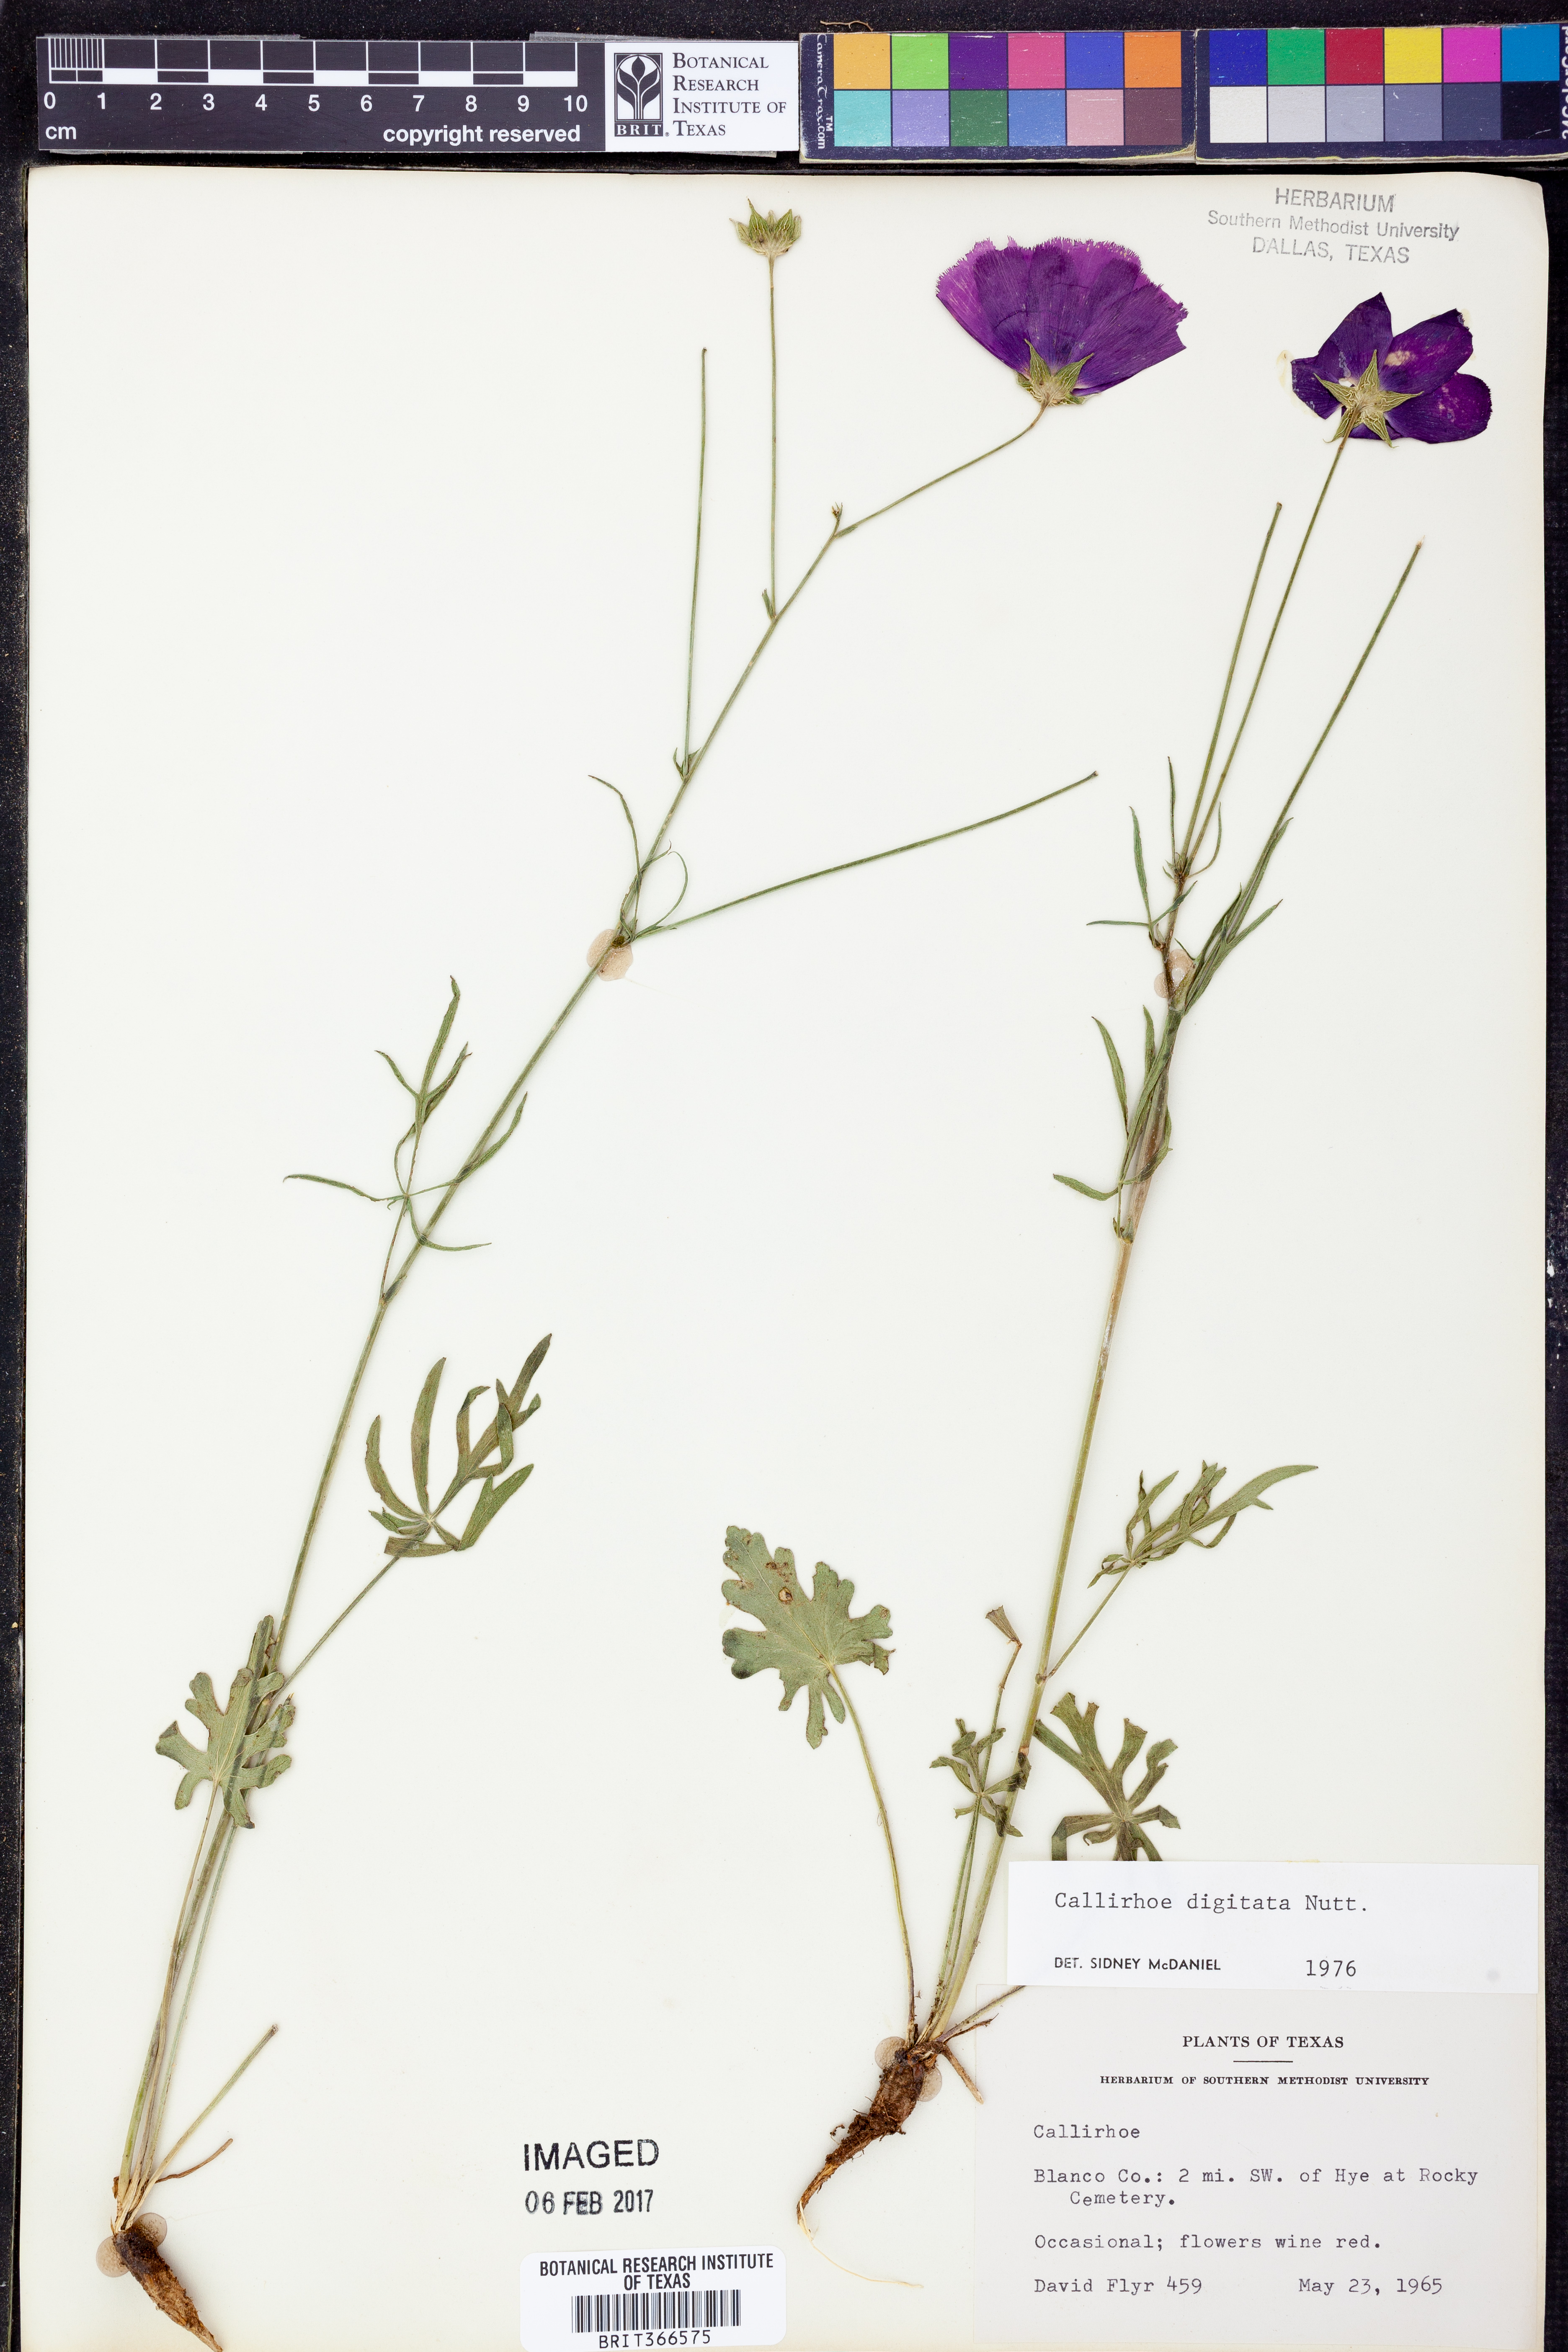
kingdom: Plantae
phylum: Tracheophyta
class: Magnoliopsida
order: Malvales
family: Malvaceae
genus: Callirhoe
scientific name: Callirhoe digitata
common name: Finger poppy-mallow
